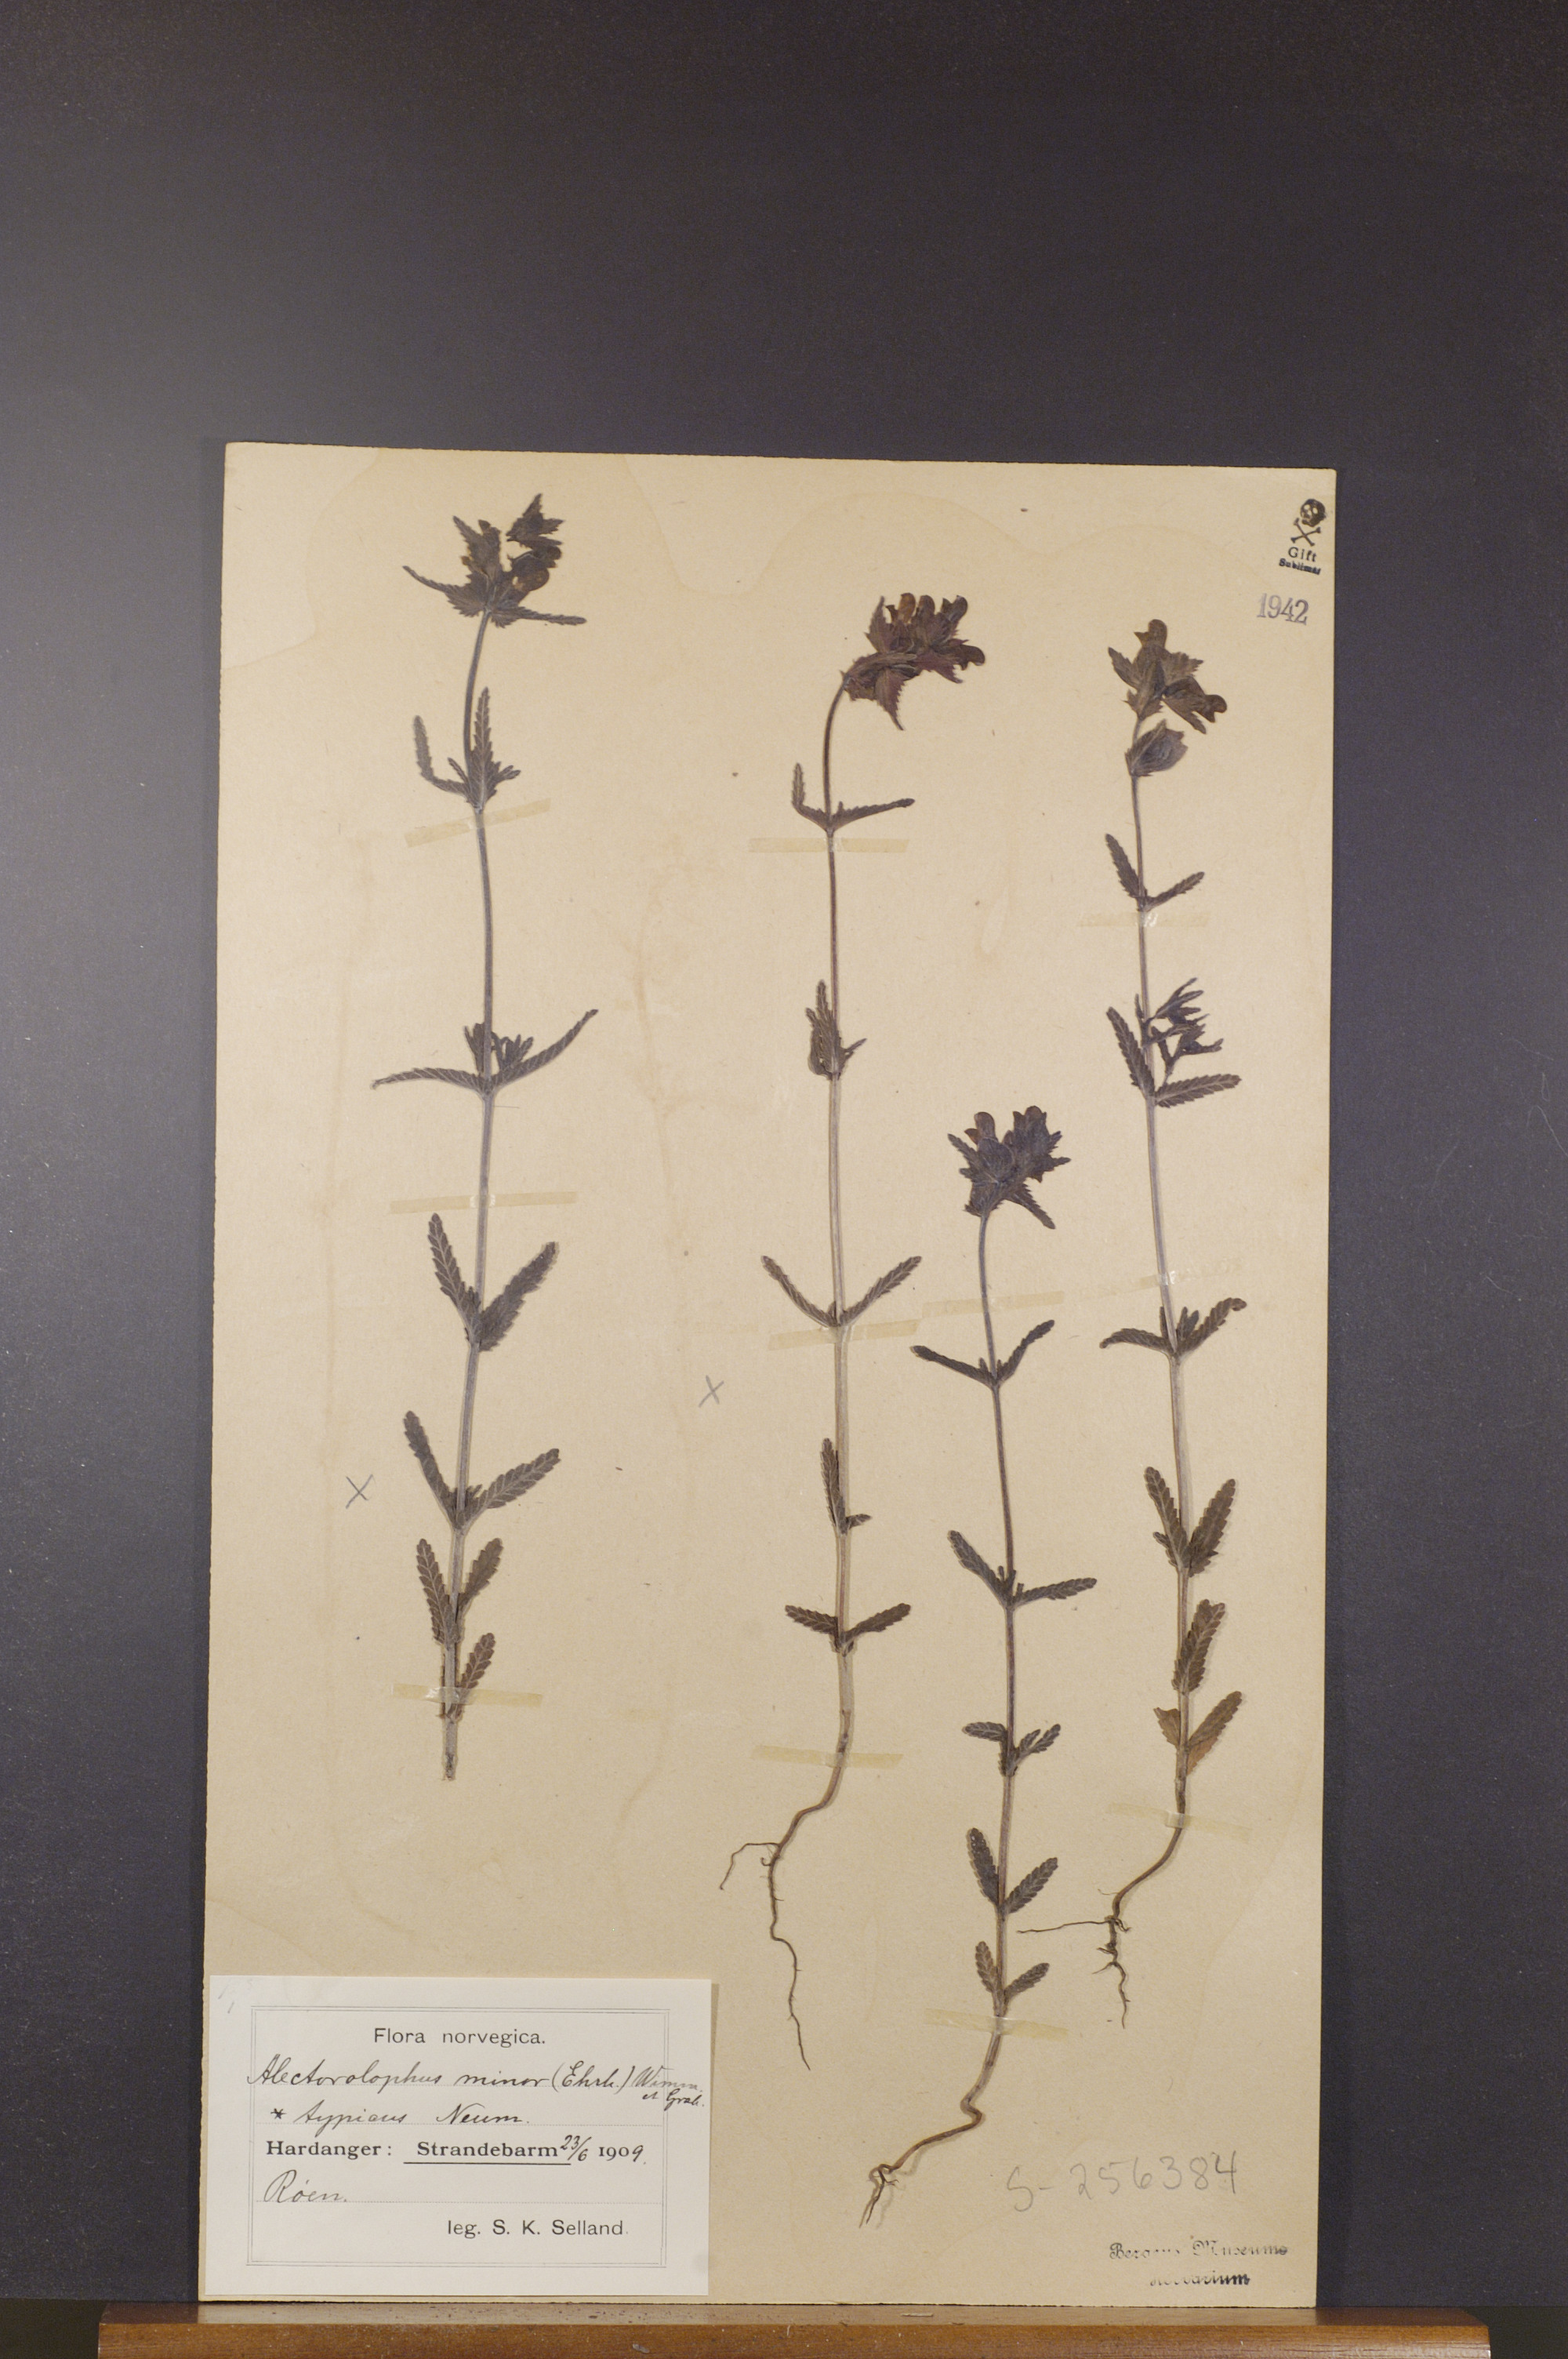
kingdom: Plantae
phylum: Tracheophyta
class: Magnoliopsida
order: Lamiales
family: Orobanchaceae
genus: Rhinanthus
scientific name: Rhinanthus minor
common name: Yellow-rattle
